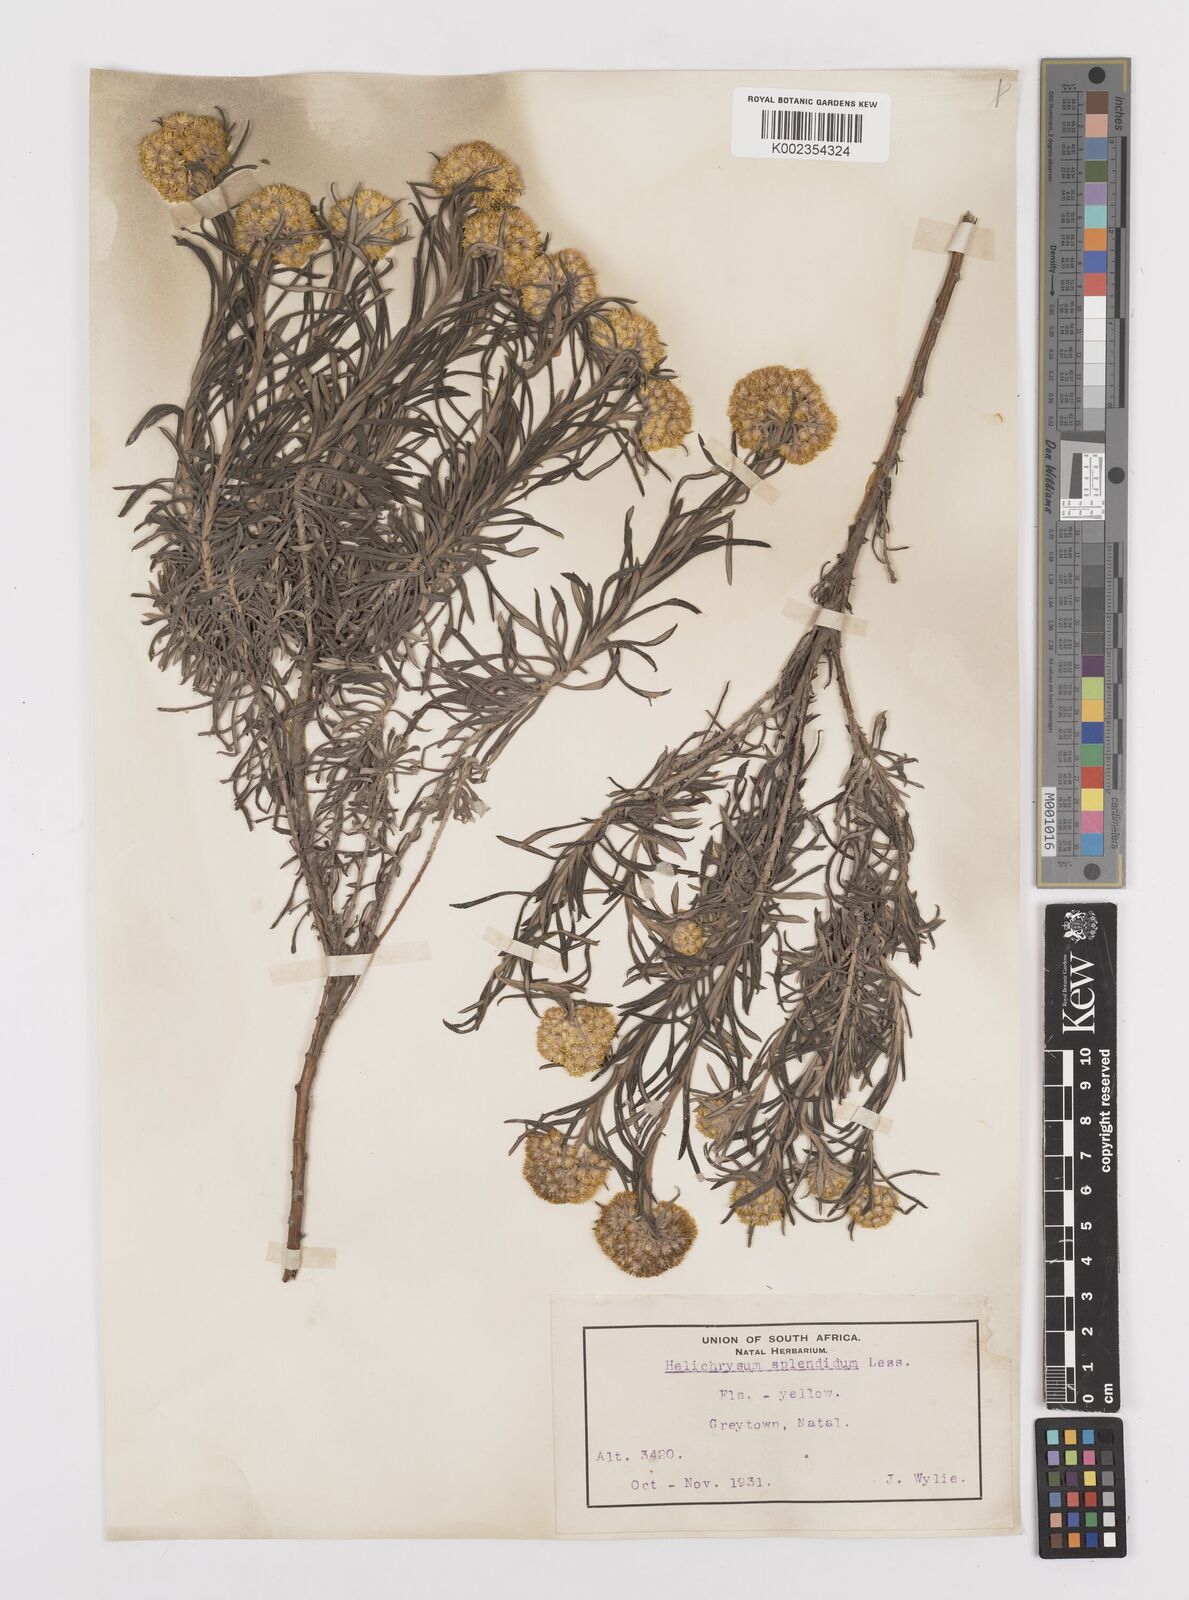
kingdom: Plantae
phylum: Tracheophyta
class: Magnoliopsida
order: Asterales
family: Asteraceae
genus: Helichrysum
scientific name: Helichrysum splendidum
